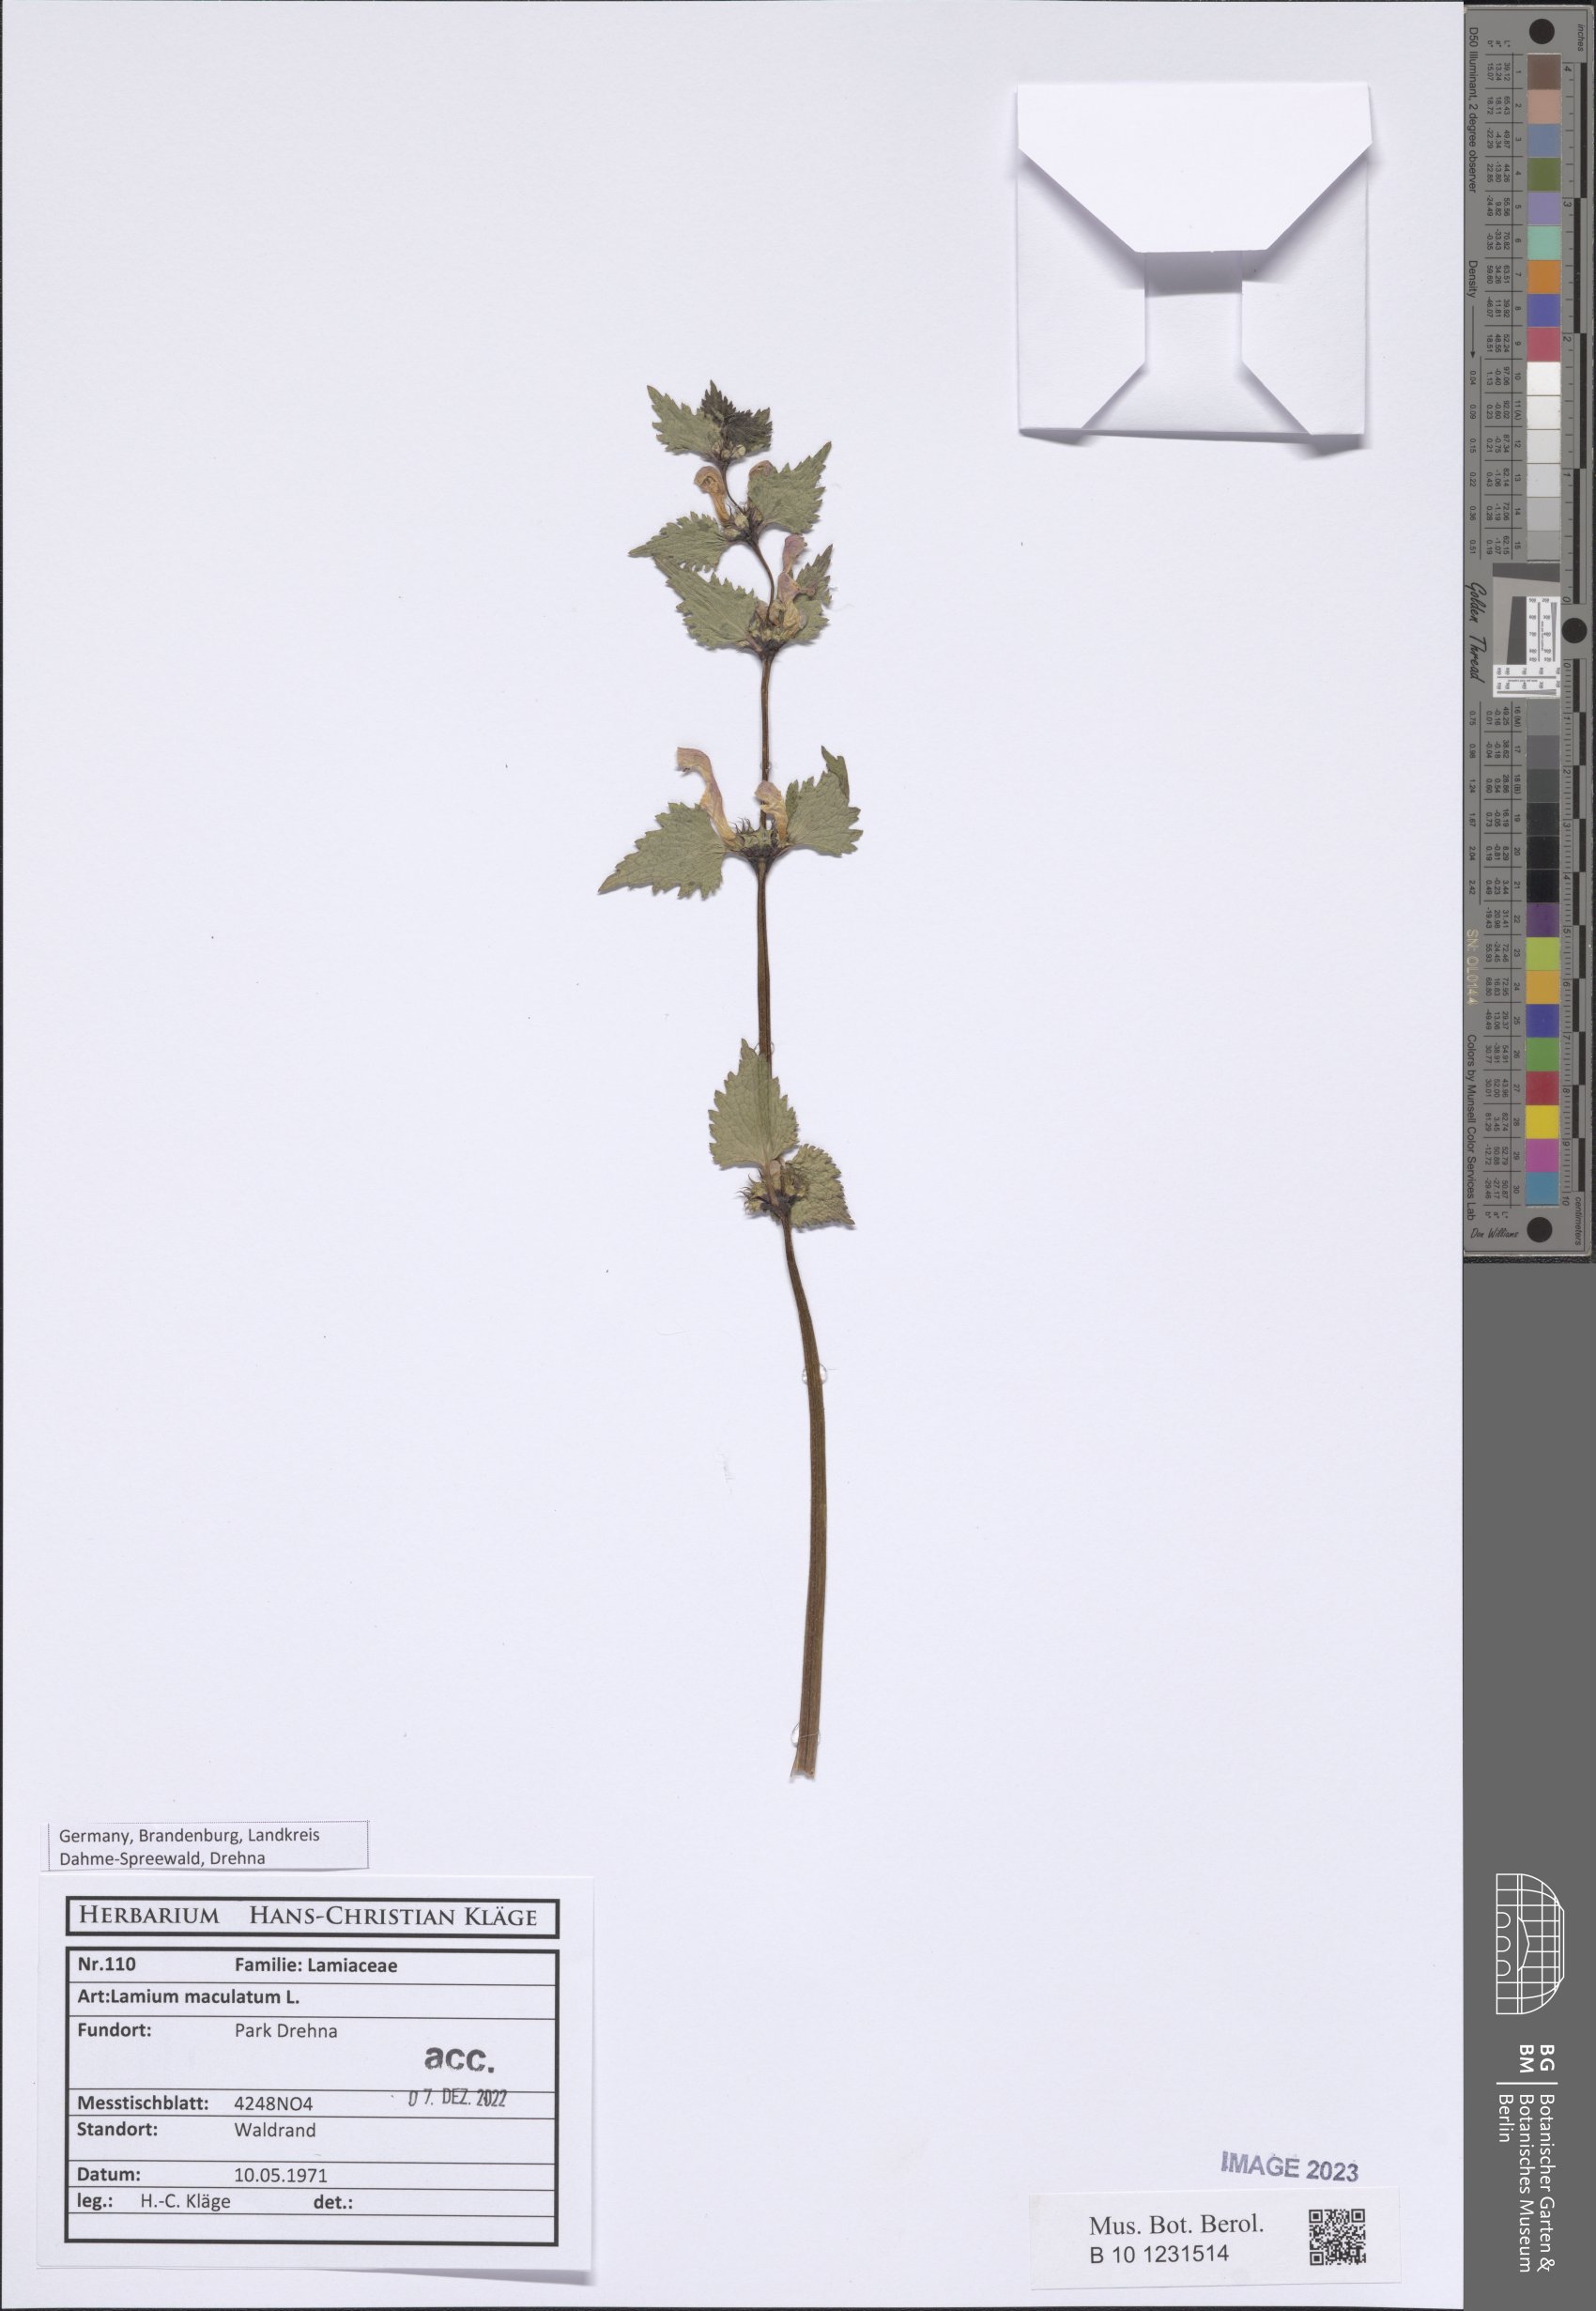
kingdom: Plantae
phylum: Tracheophyta
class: Magnoliopsida
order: Lamiales
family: Lamiaceae
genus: Lamium
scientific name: Lamium maculatum
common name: Spotted dead-nettle
